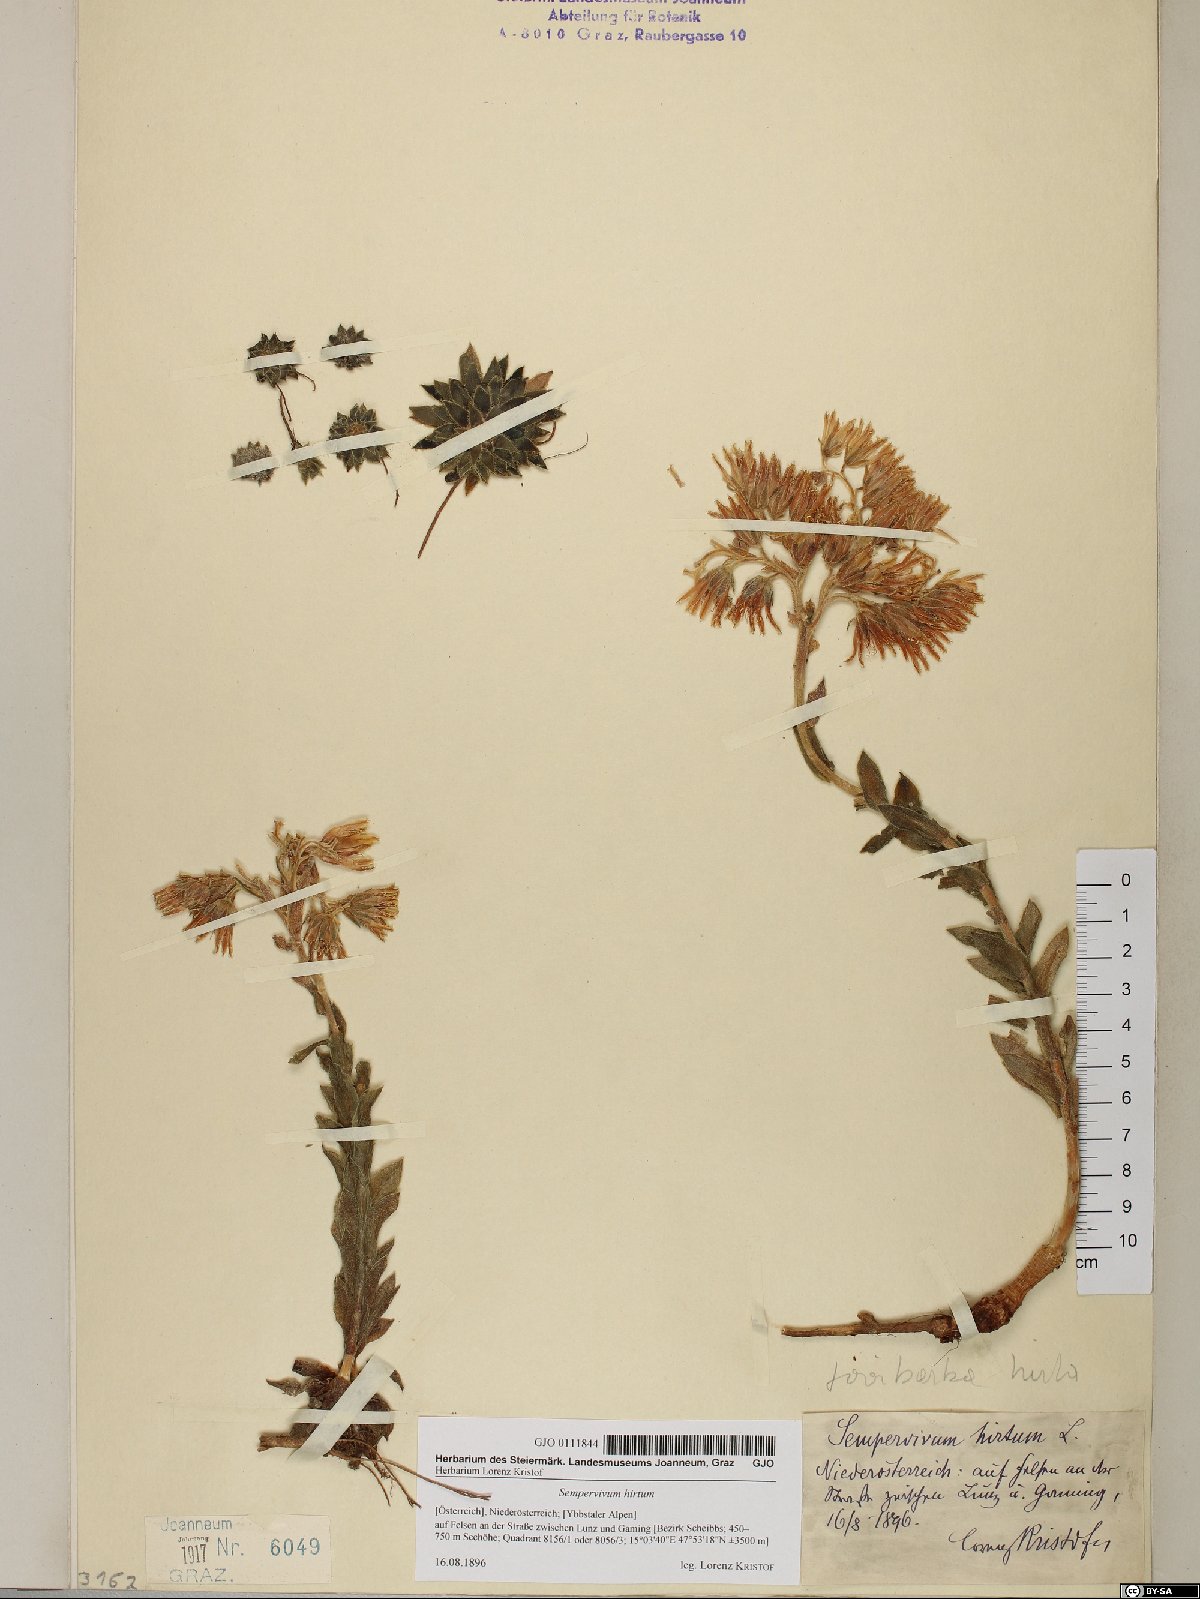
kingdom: Plantae
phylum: Tracheophyta
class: Magnoliopsida
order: Saxifragales
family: Crassulaceae
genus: Sempervivum
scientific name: Sempervivum globiferum
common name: Rolling hen-and-chicks
